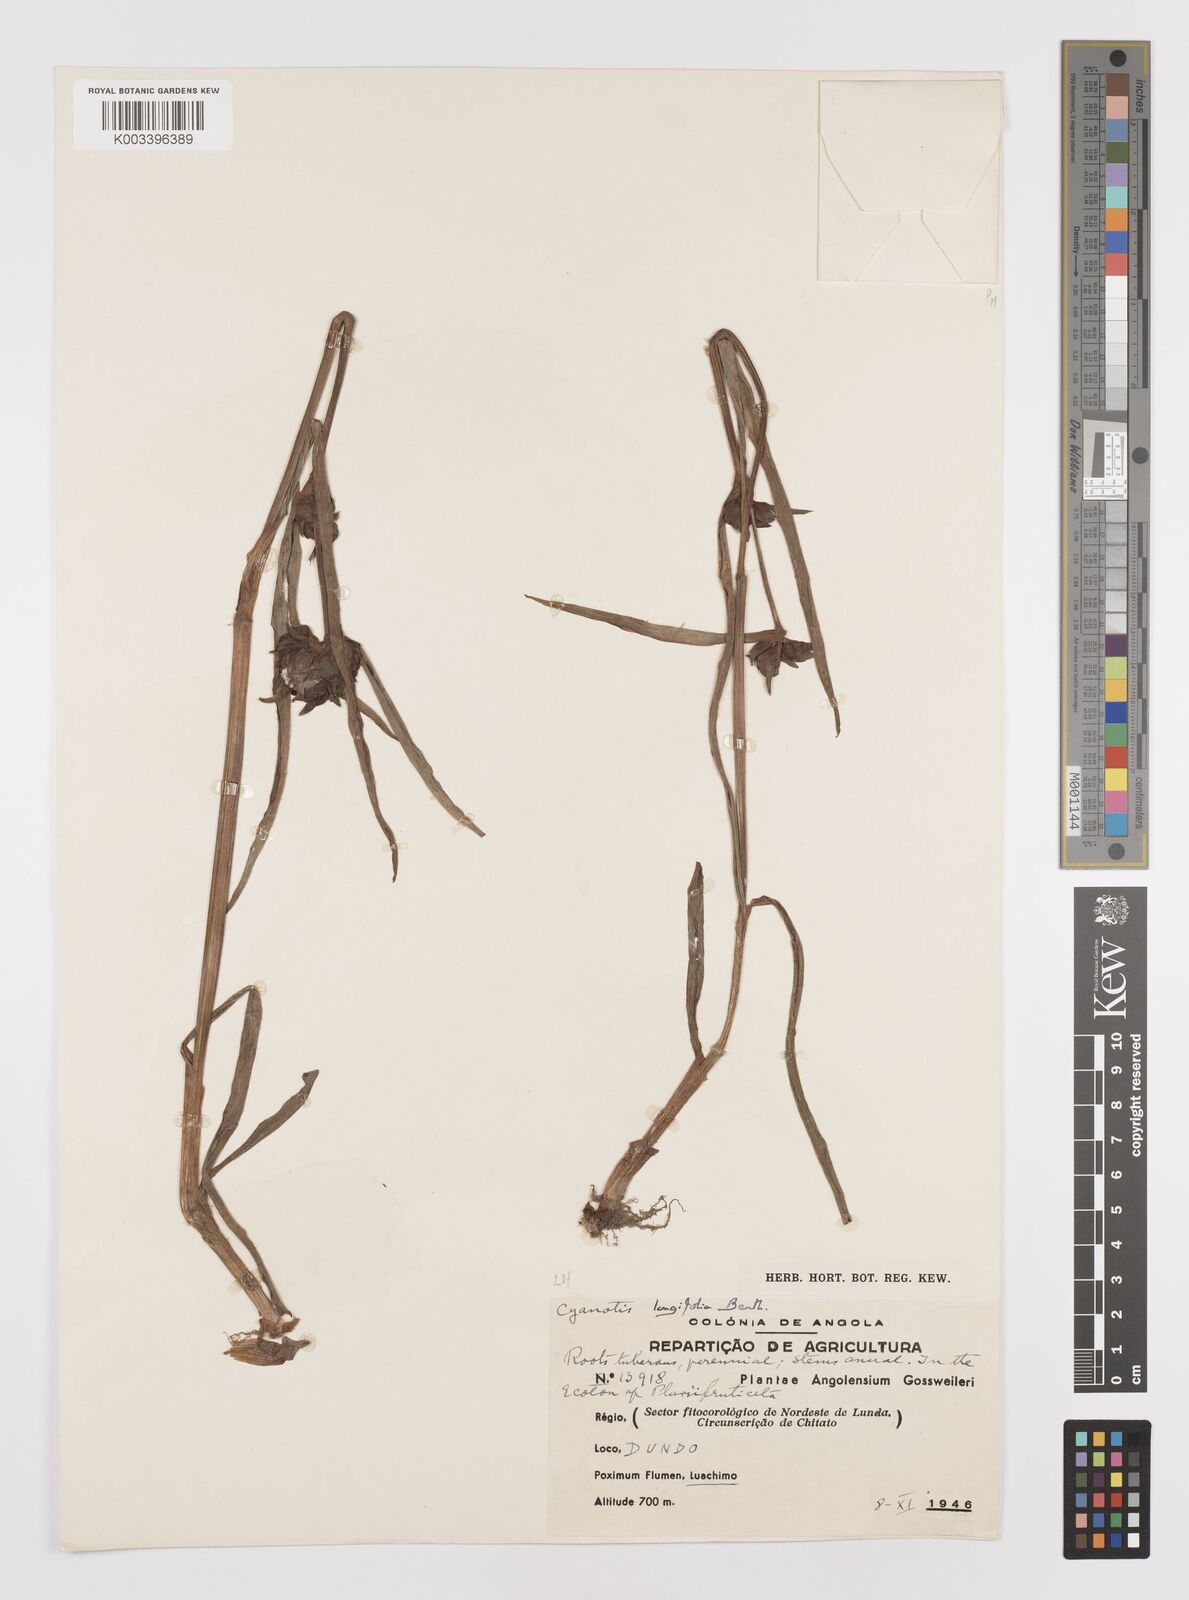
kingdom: Plantae
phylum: Tracheophyta
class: Liliopsida
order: Commelinales
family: Commelinaceae
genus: Cyanotis
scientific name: Cyanotis longifolia
